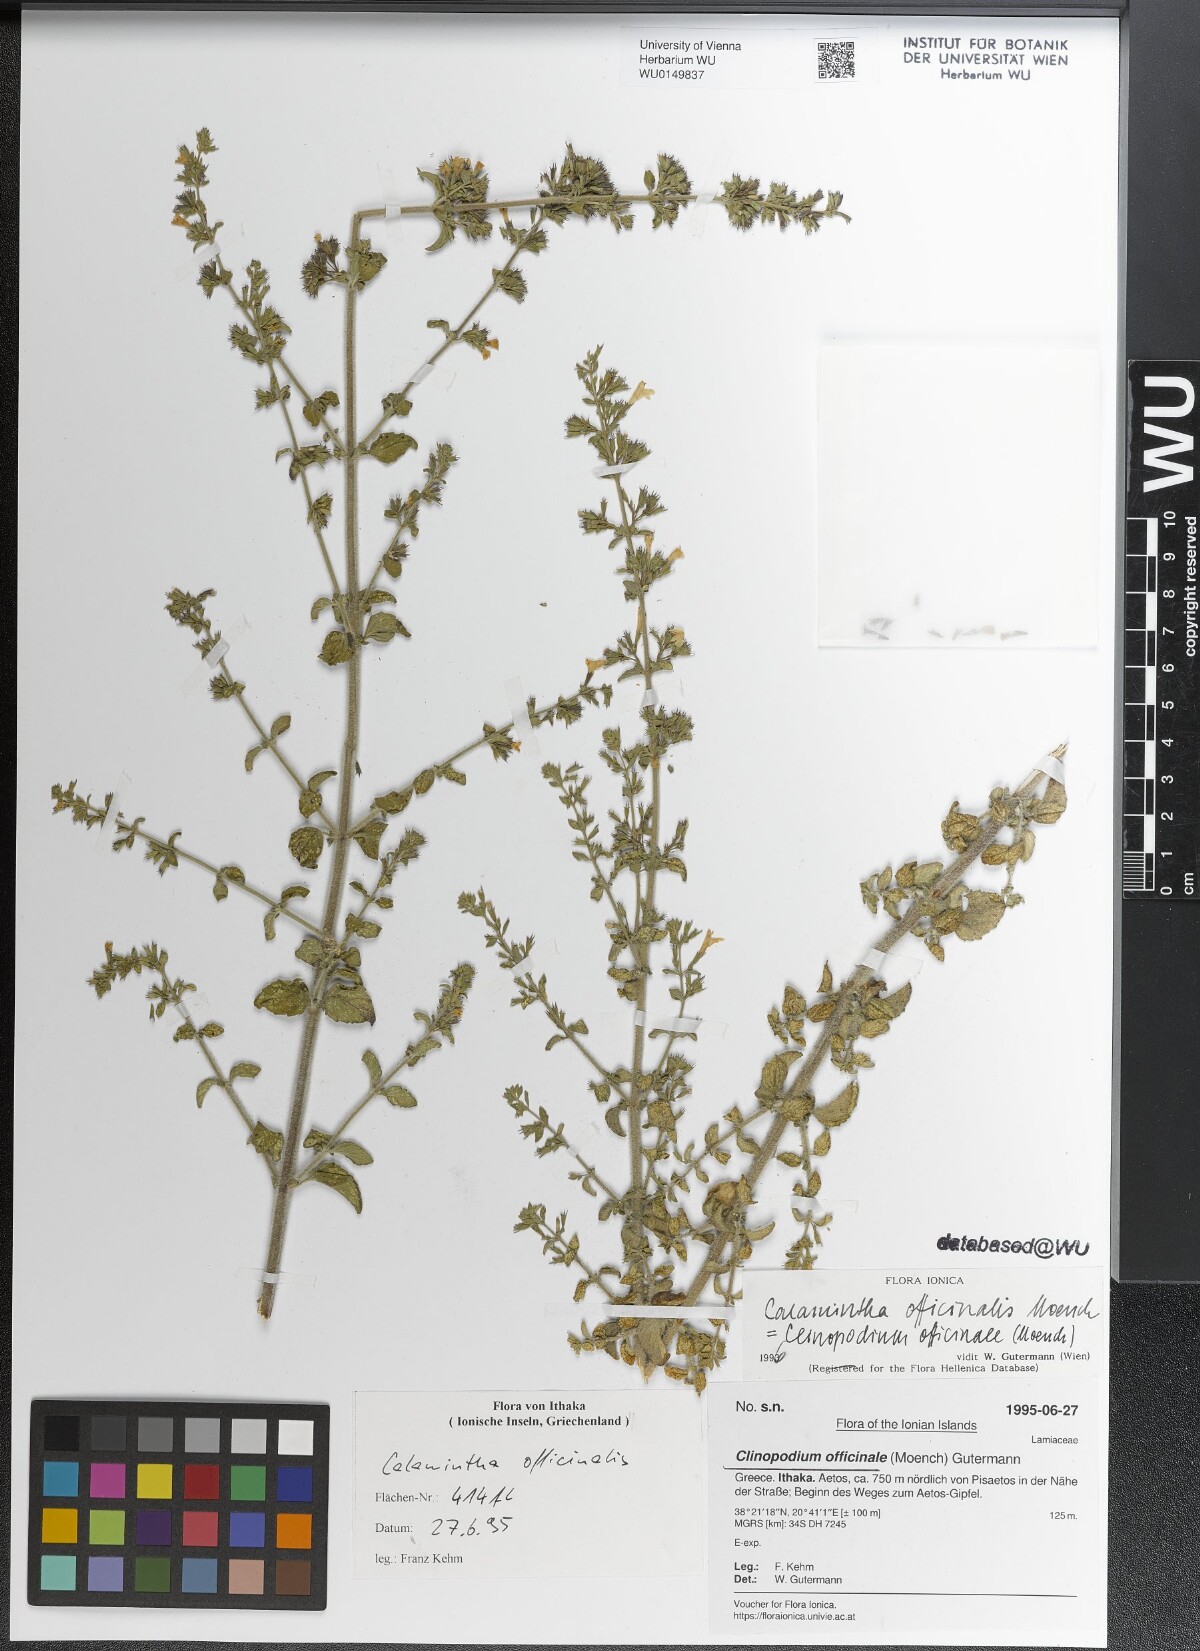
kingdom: Plantae
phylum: Tracheophyta
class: Magnoliopsida
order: Lamiales
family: Lamiaceae
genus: Clinopodium
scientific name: Clinopodium nepeta
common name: Lesser calamint
